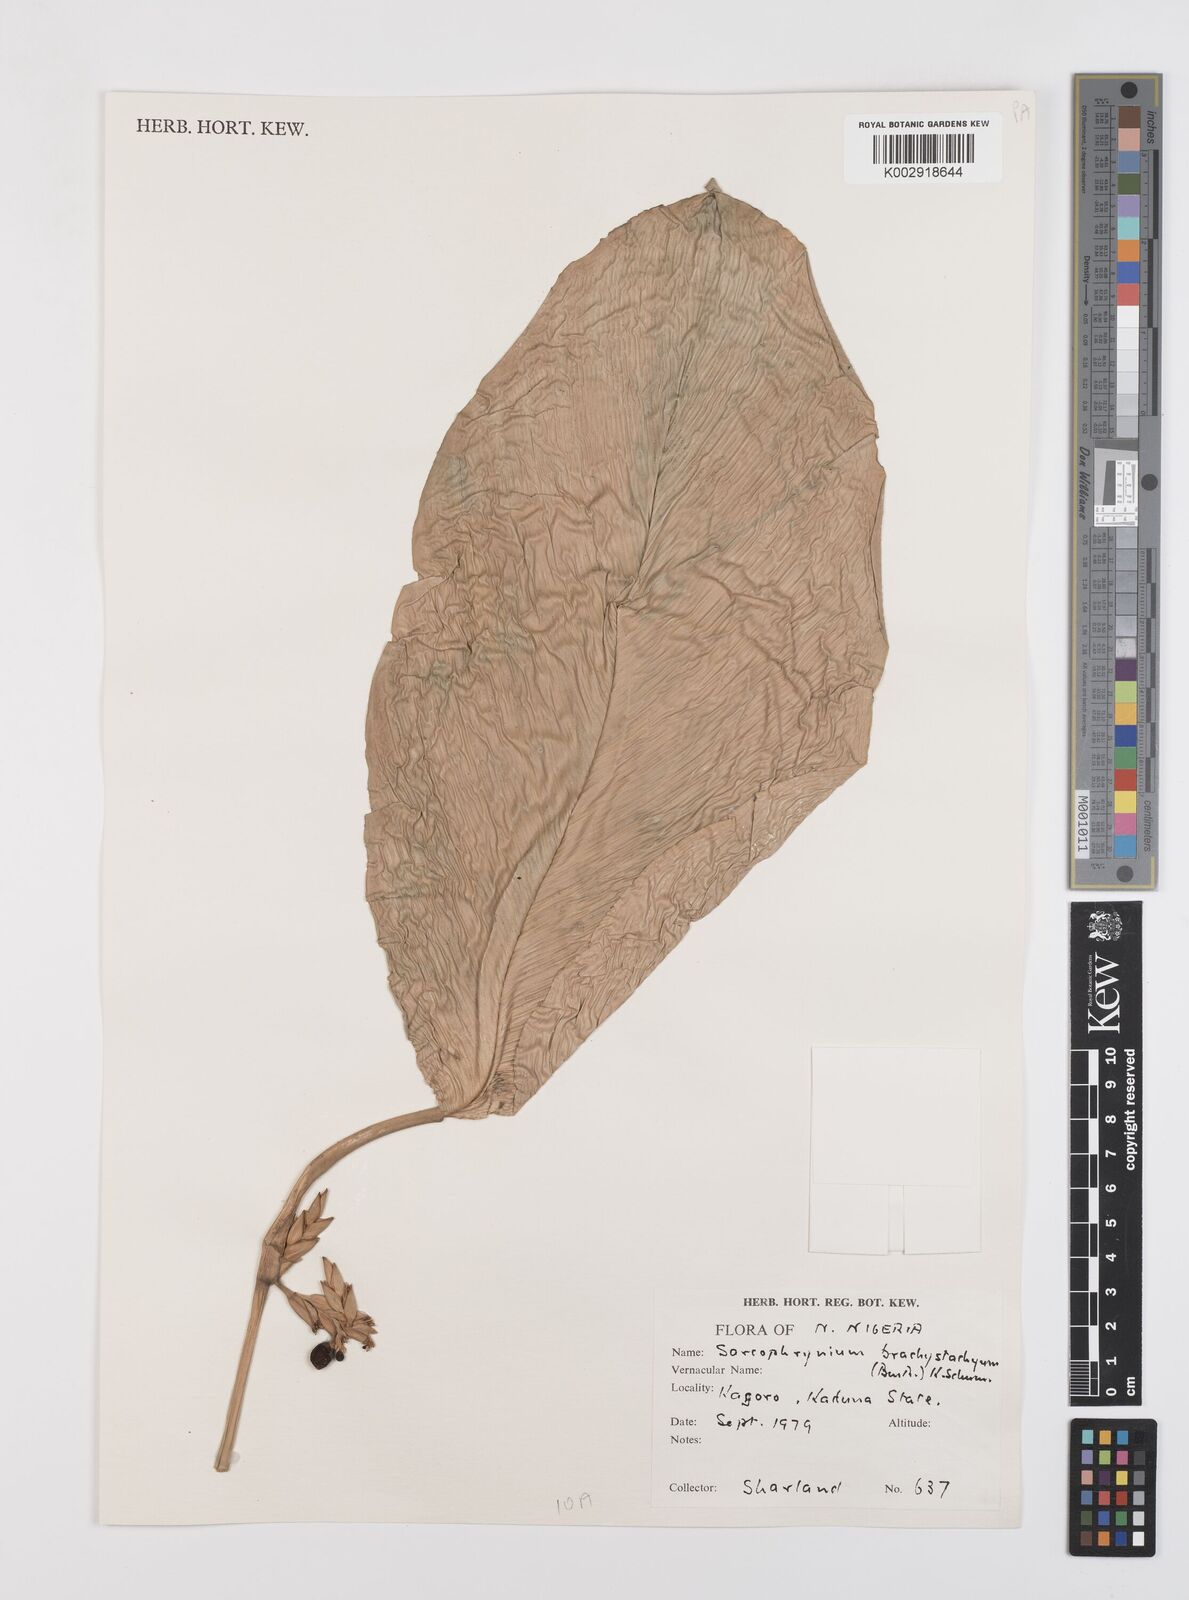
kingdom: Plantae
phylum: Tracheophyta
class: Liliopsida
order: Zingiberales
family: Marantaceae
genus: Sarcophrynium
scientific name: Sarcophrynium brachystachyum
